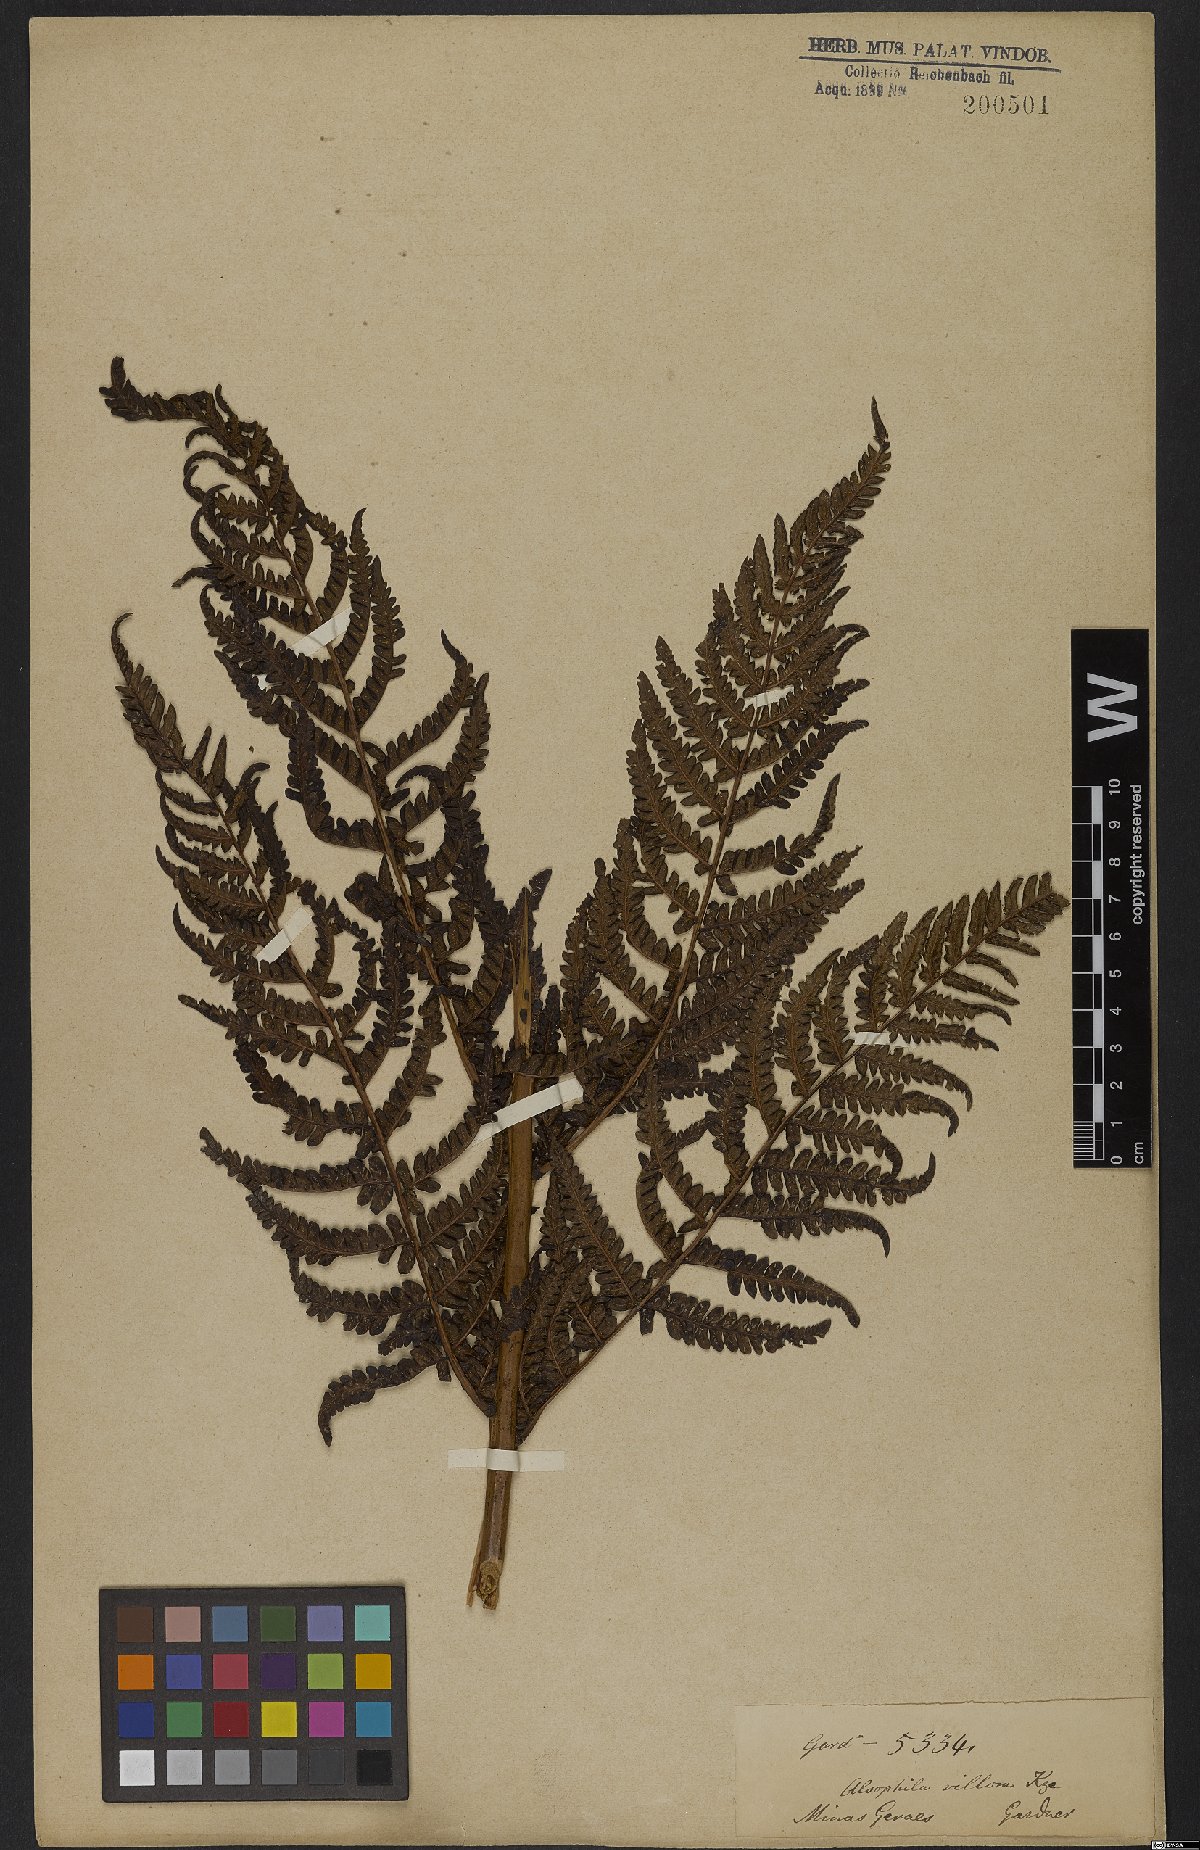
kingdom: Plantae
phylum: Tracheophyta
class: Polypodiopsida
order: Cyatheales
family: Cyatheaceae
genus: Cyathea
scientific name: Cyathea villosa
